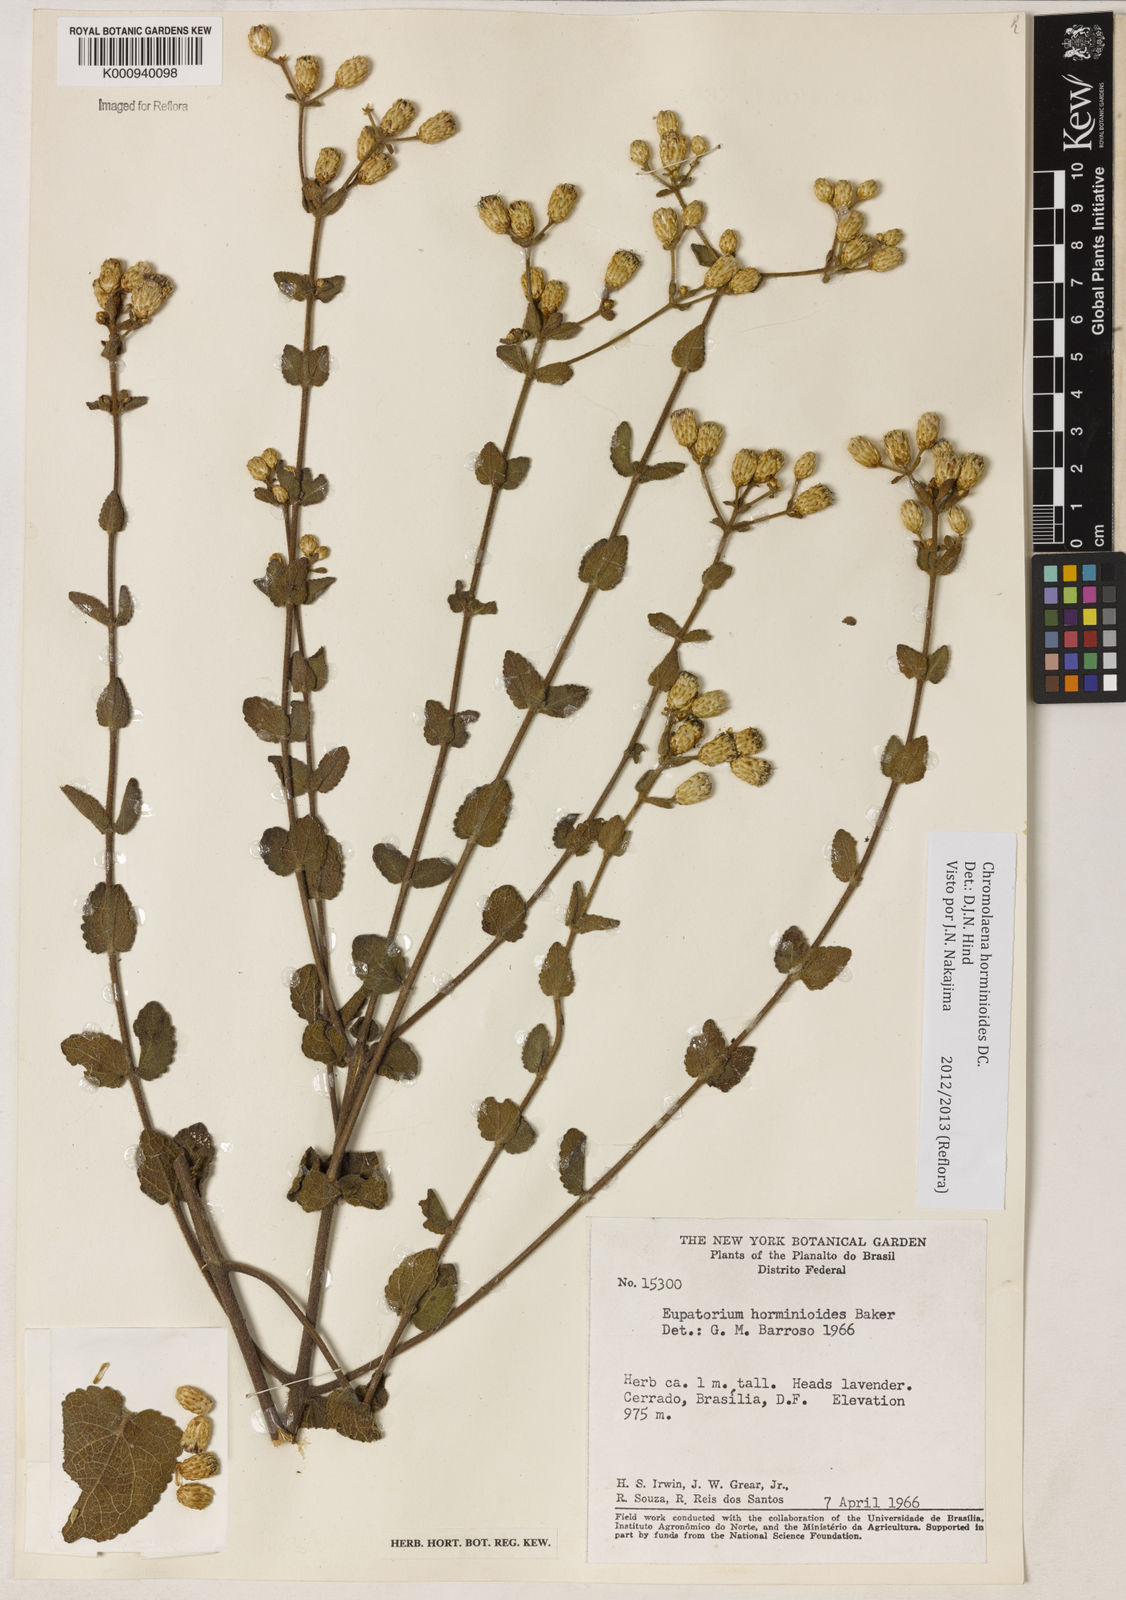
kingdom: Plantae
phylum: Tracheophyta
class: Magnoliopsida
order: Asterales
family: Asteraceae
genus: Chromolaena
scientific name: Chromolaena horminoides
